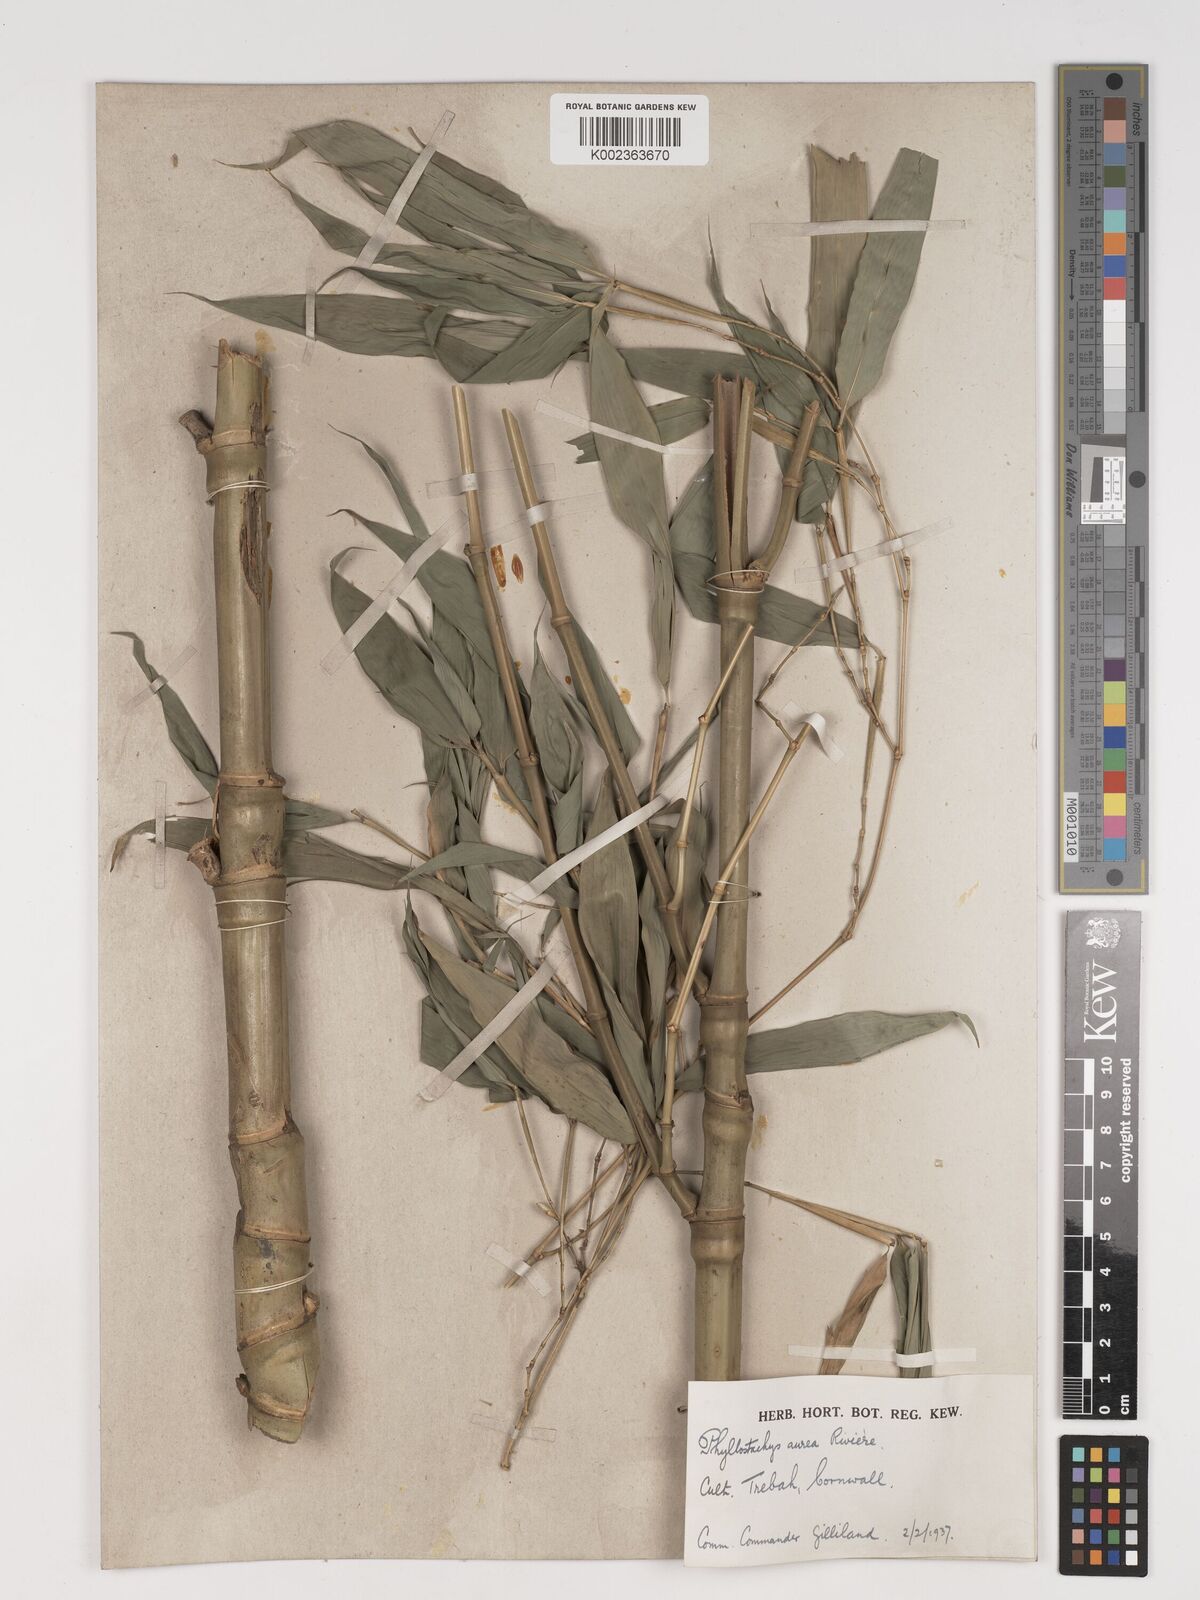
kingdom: Plantae
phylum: Tracheophyta
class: Liliopsida
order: Poales
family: Poaceae
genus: Phyllostachys
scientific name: Phyllostachys aurea
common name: Golden bamboo
